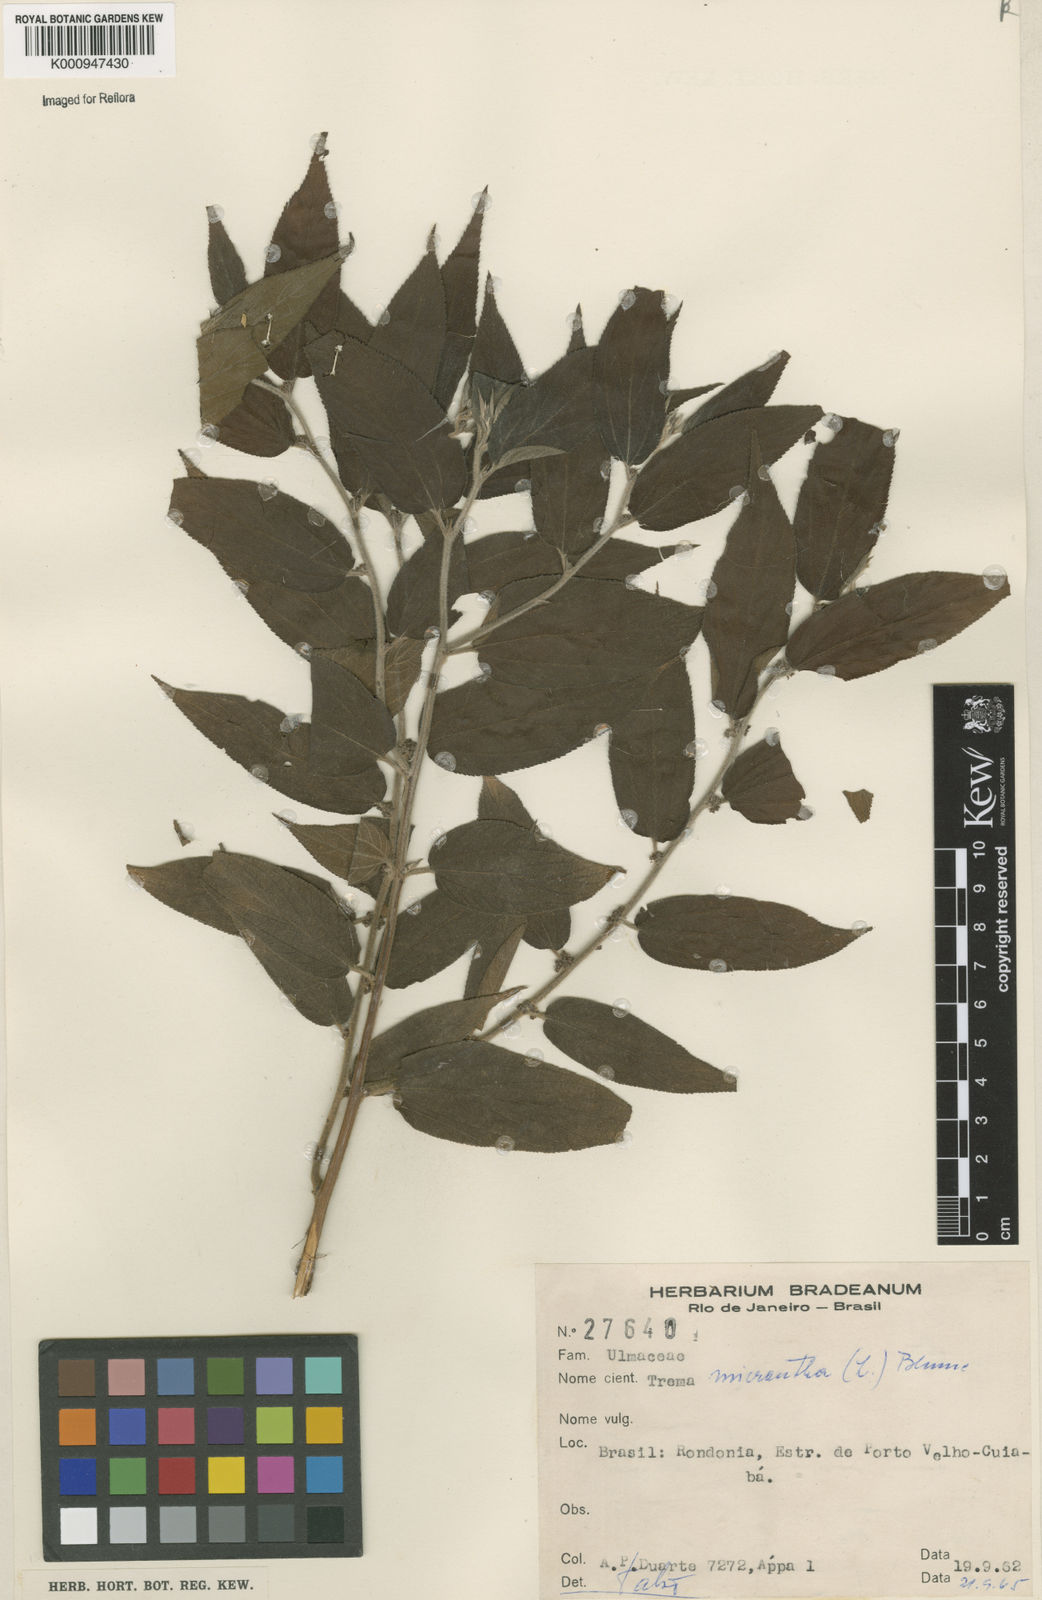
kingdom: Plantae
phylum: Tracheophyta
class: Magnoliopsida
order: Rosales
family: Cannabaceae
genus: Trema
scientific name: Trema micranthum
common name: Jamaican nettletree
